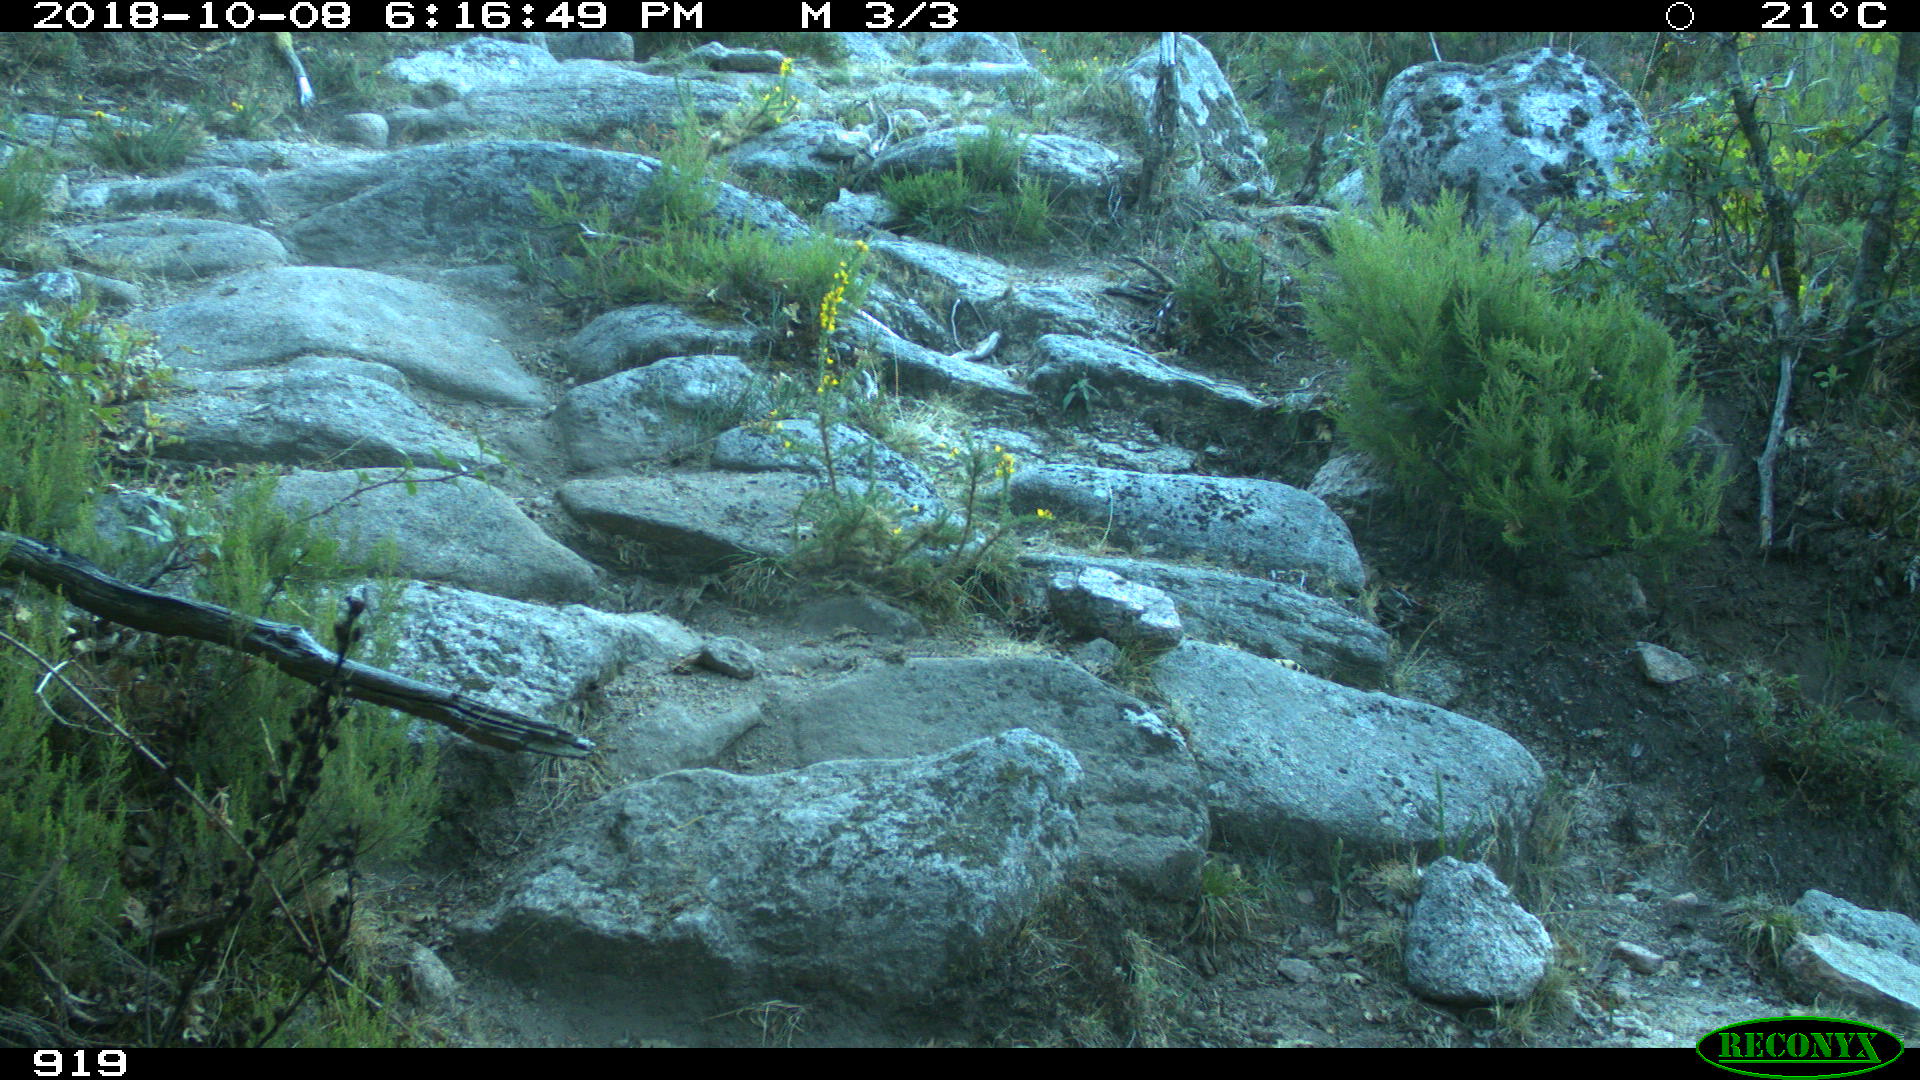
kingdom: Animalia
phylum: Chordata
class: Mammalia
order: Artiodactyla
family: Bovidae
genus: Bos
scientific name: Bos taurus
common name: Domesticated cattle
